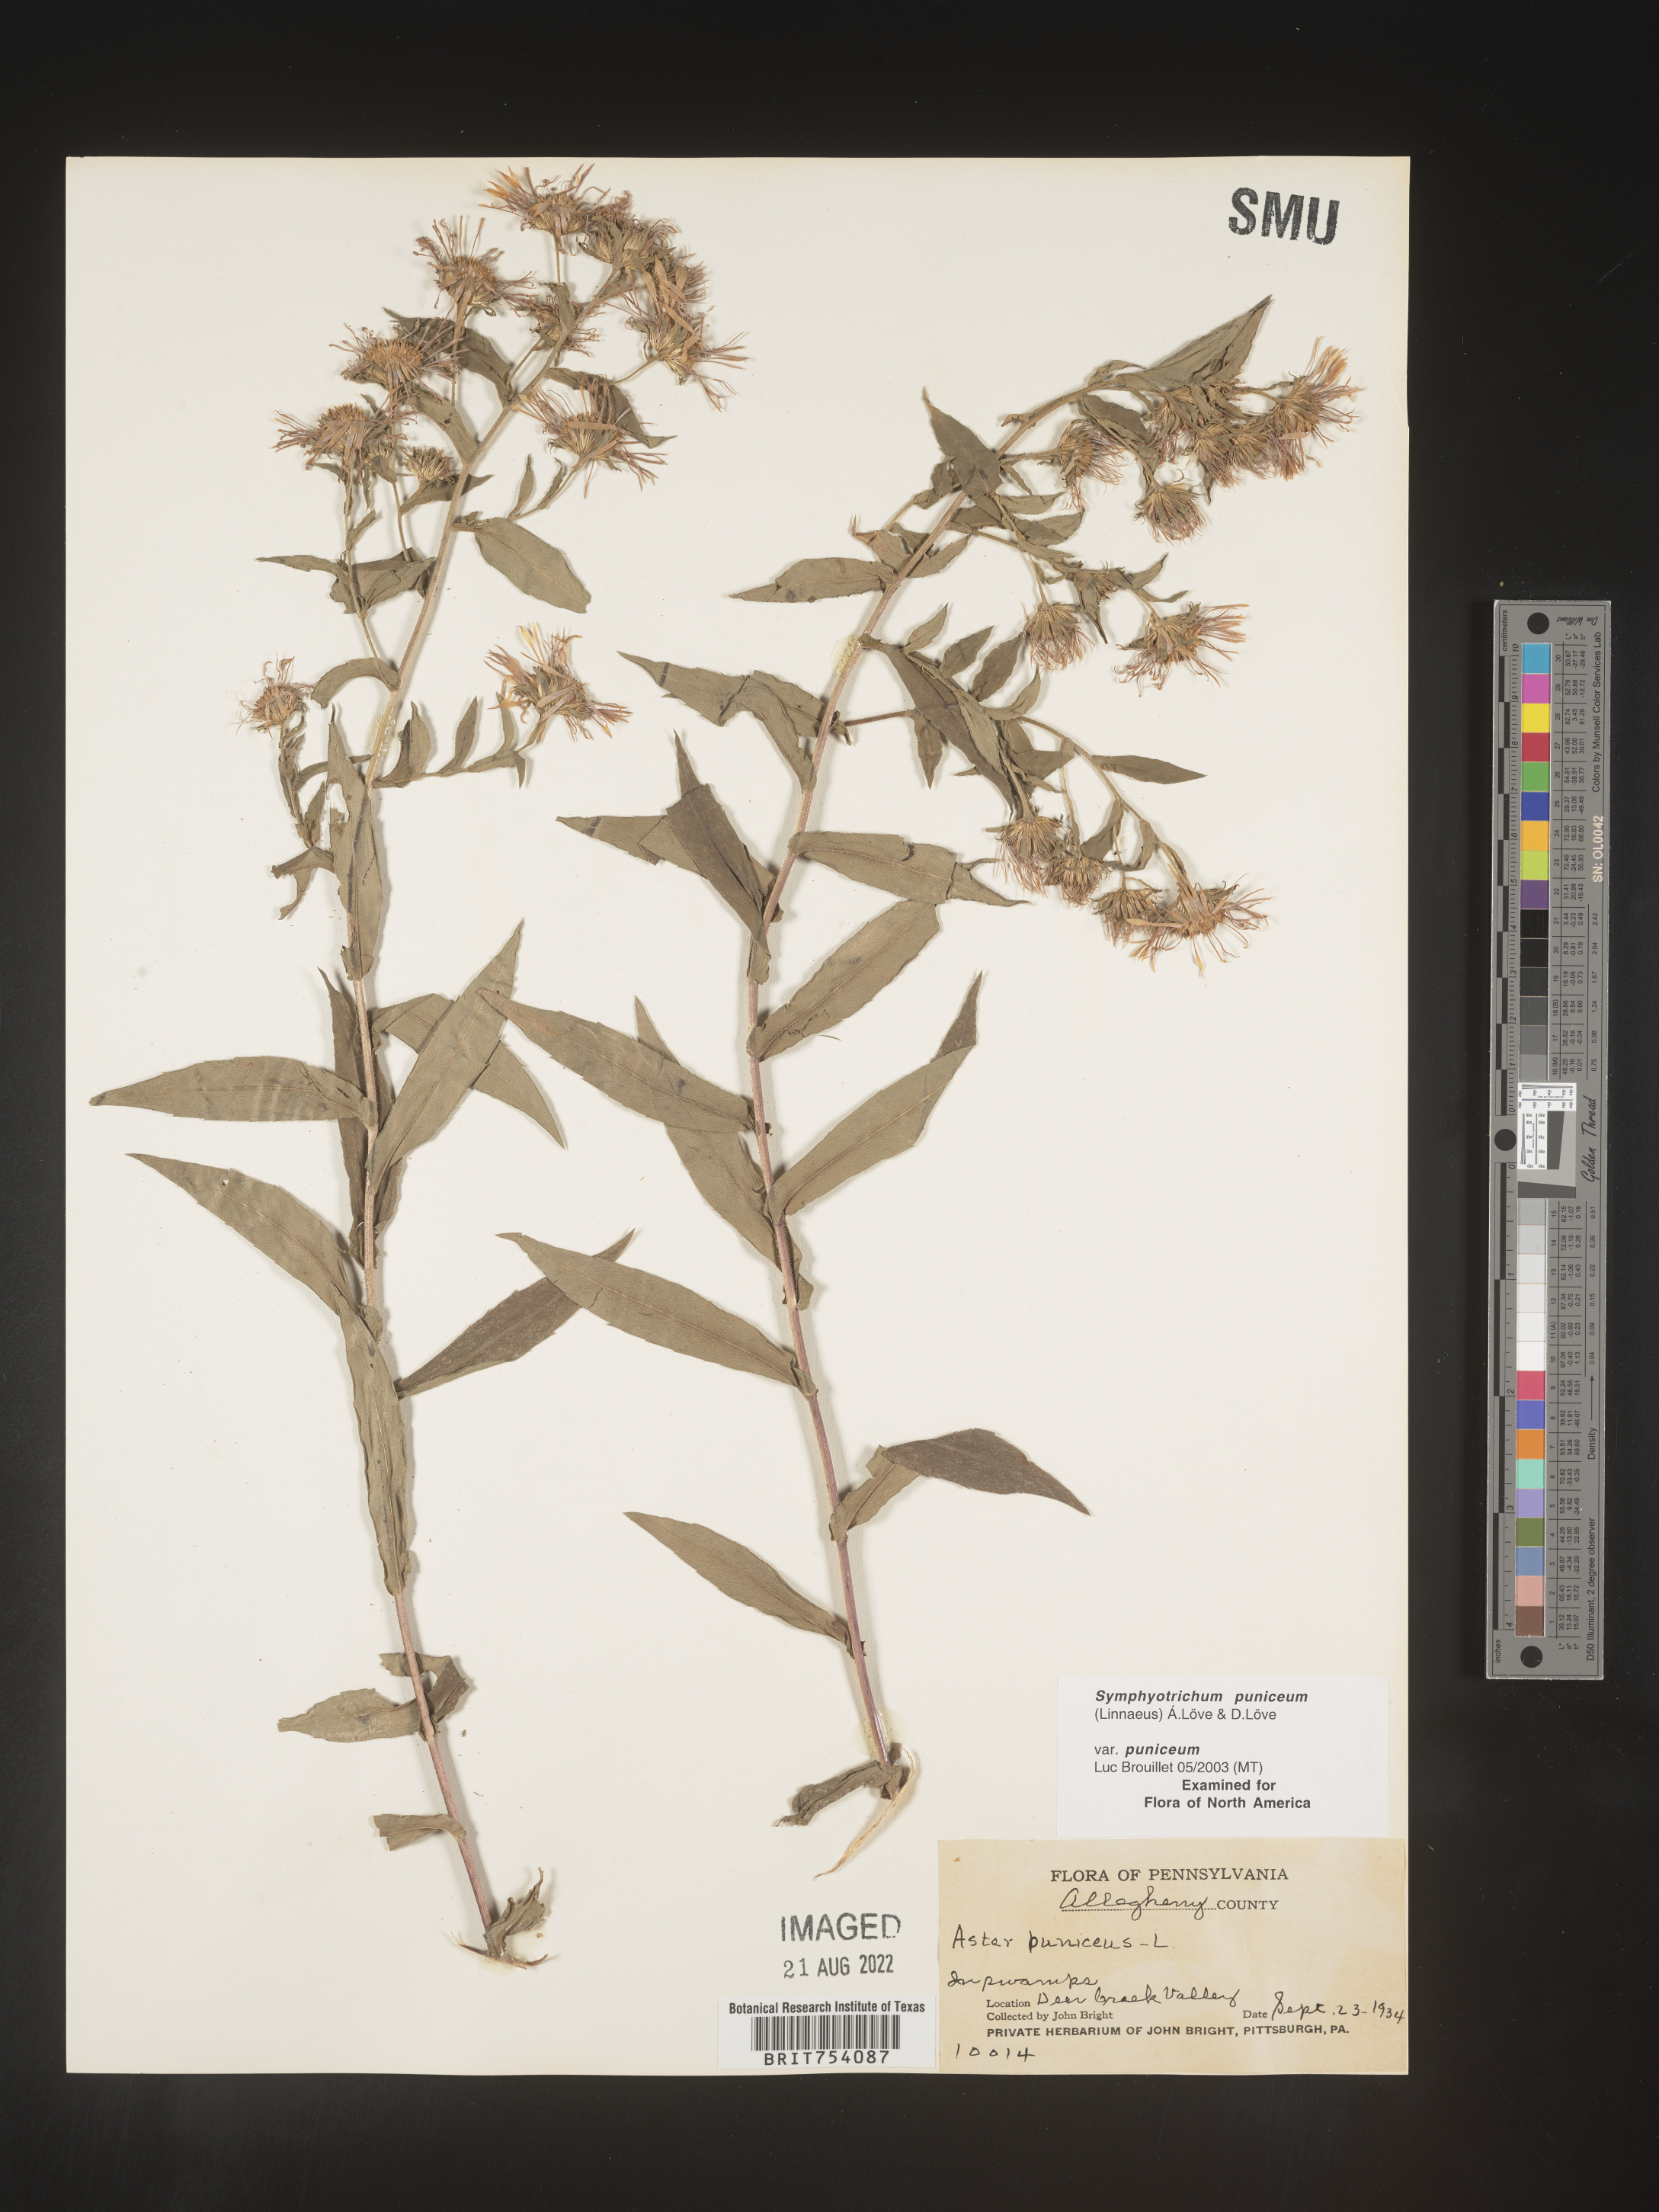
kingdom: Plantae
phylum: Tracheophyta
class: Magnoliopsida
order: Asterales
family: Asteraceae
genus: Symphyotrichum
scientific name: Symphyotrichum puniceum
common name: Bog aster
